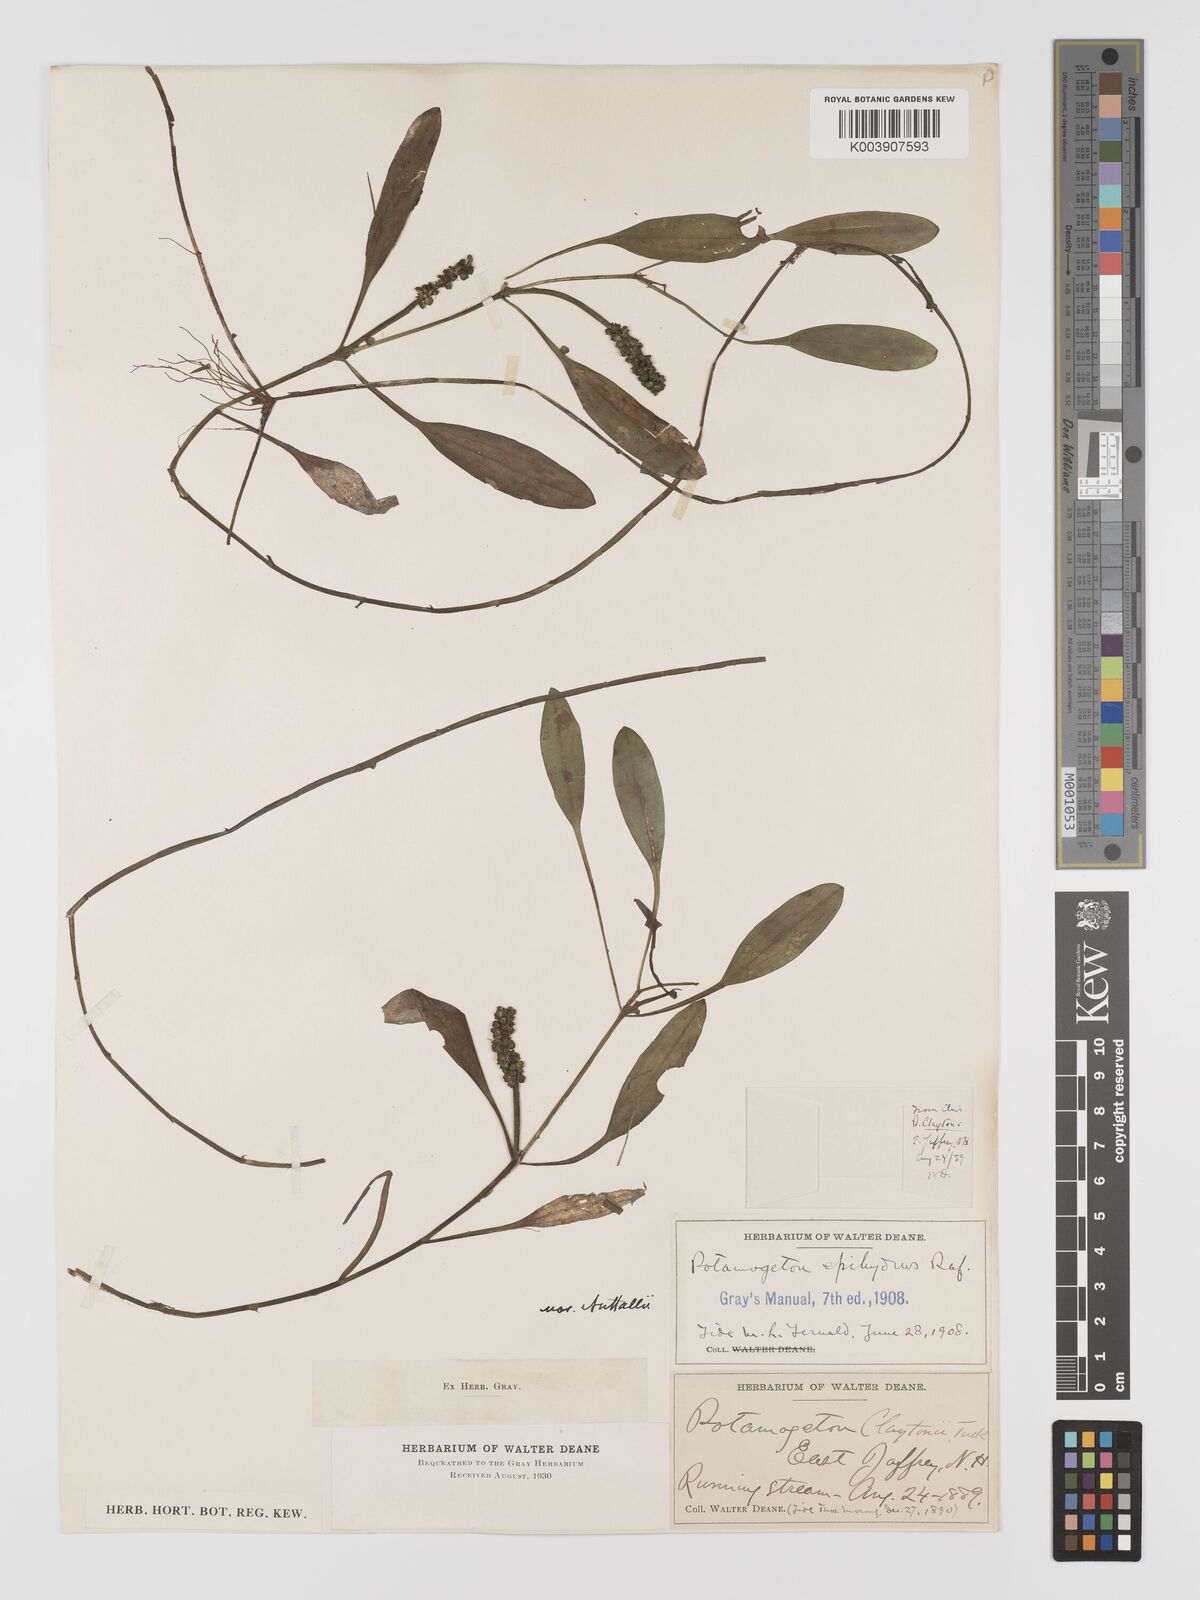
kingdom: Plantae
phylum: Tracheophyta
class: Liliopsida
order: Alismatales
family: Potamogetonaceae
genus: Potamogeton
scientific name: Potamogeton epihydrus
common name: American pondweed
